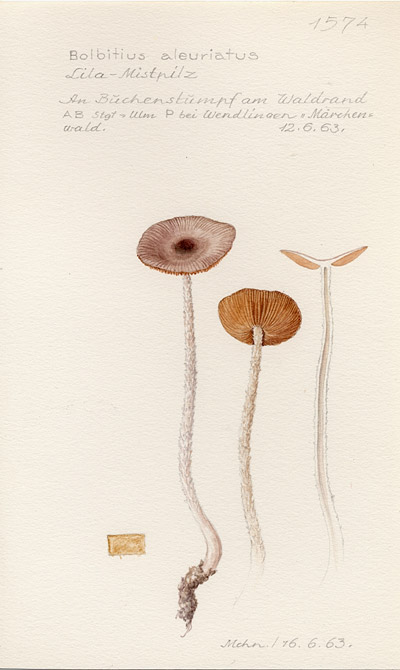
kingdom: Fungi
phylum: Basidiomycota
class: Agaricomycetes
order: Agaricales
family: Bolbitiaceae
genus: Bolbitius
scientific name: Bolbitius reticulatus
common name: Netted fieldcap
